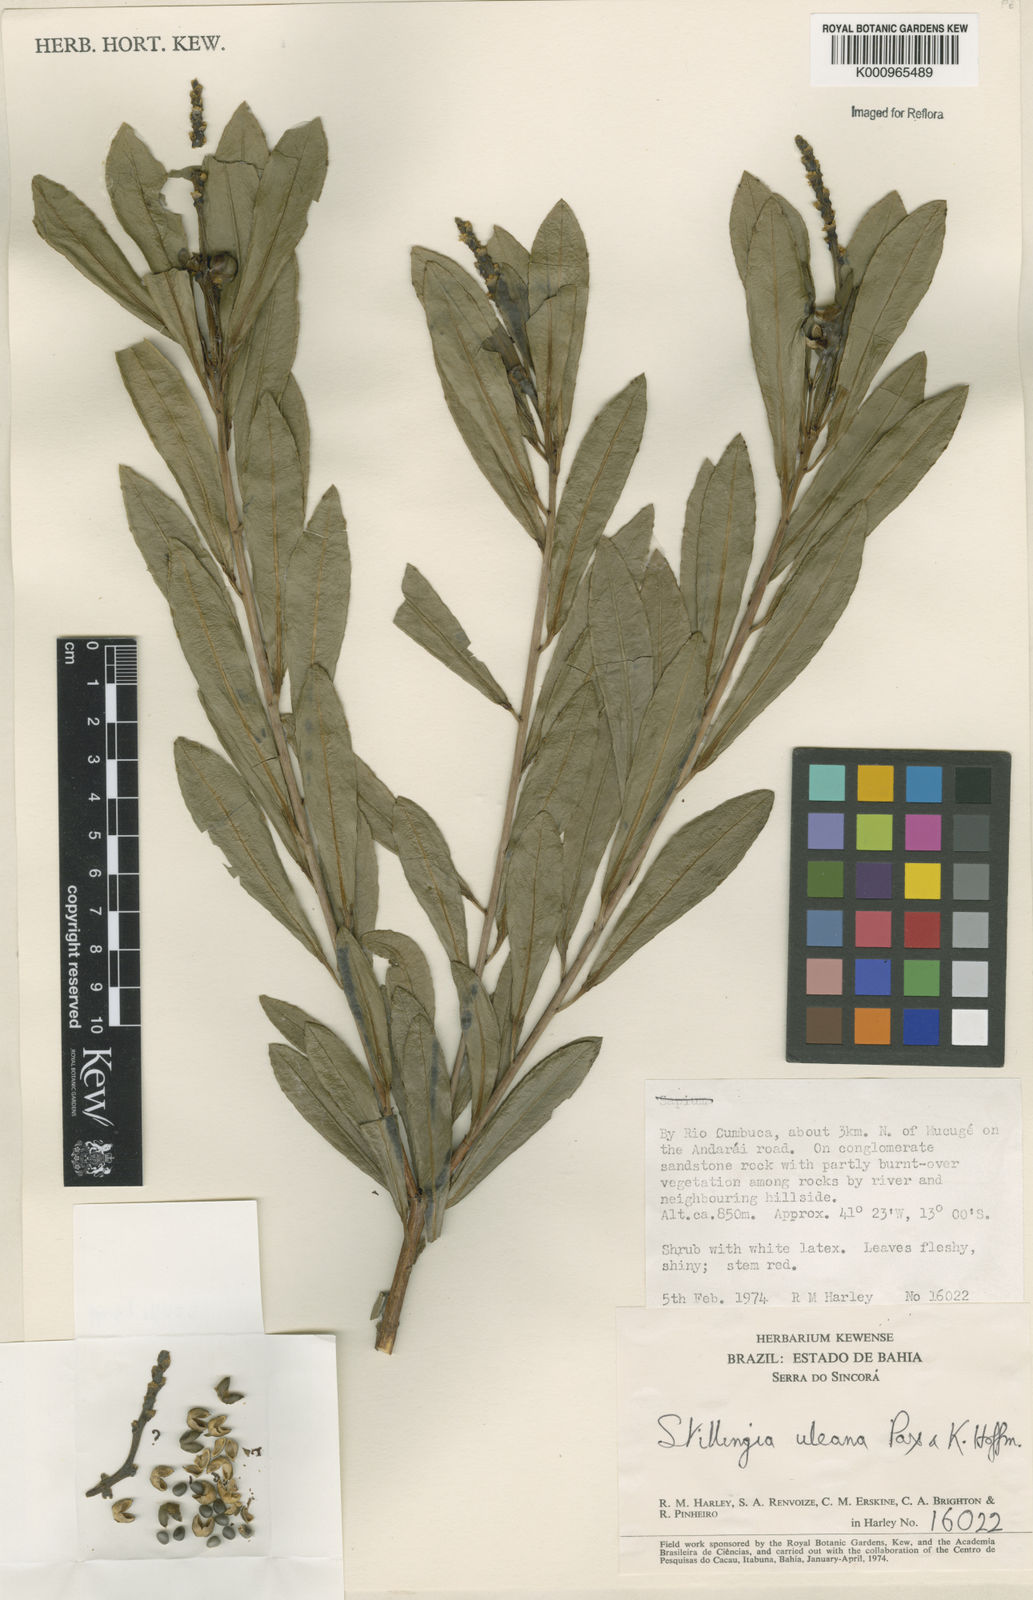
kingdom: Plantae
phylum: Tracheophyta
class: Magnoliopsida
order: Malpighiales
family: Euphorbiaceae
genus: Stillingia
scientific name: Stillingia uleana
